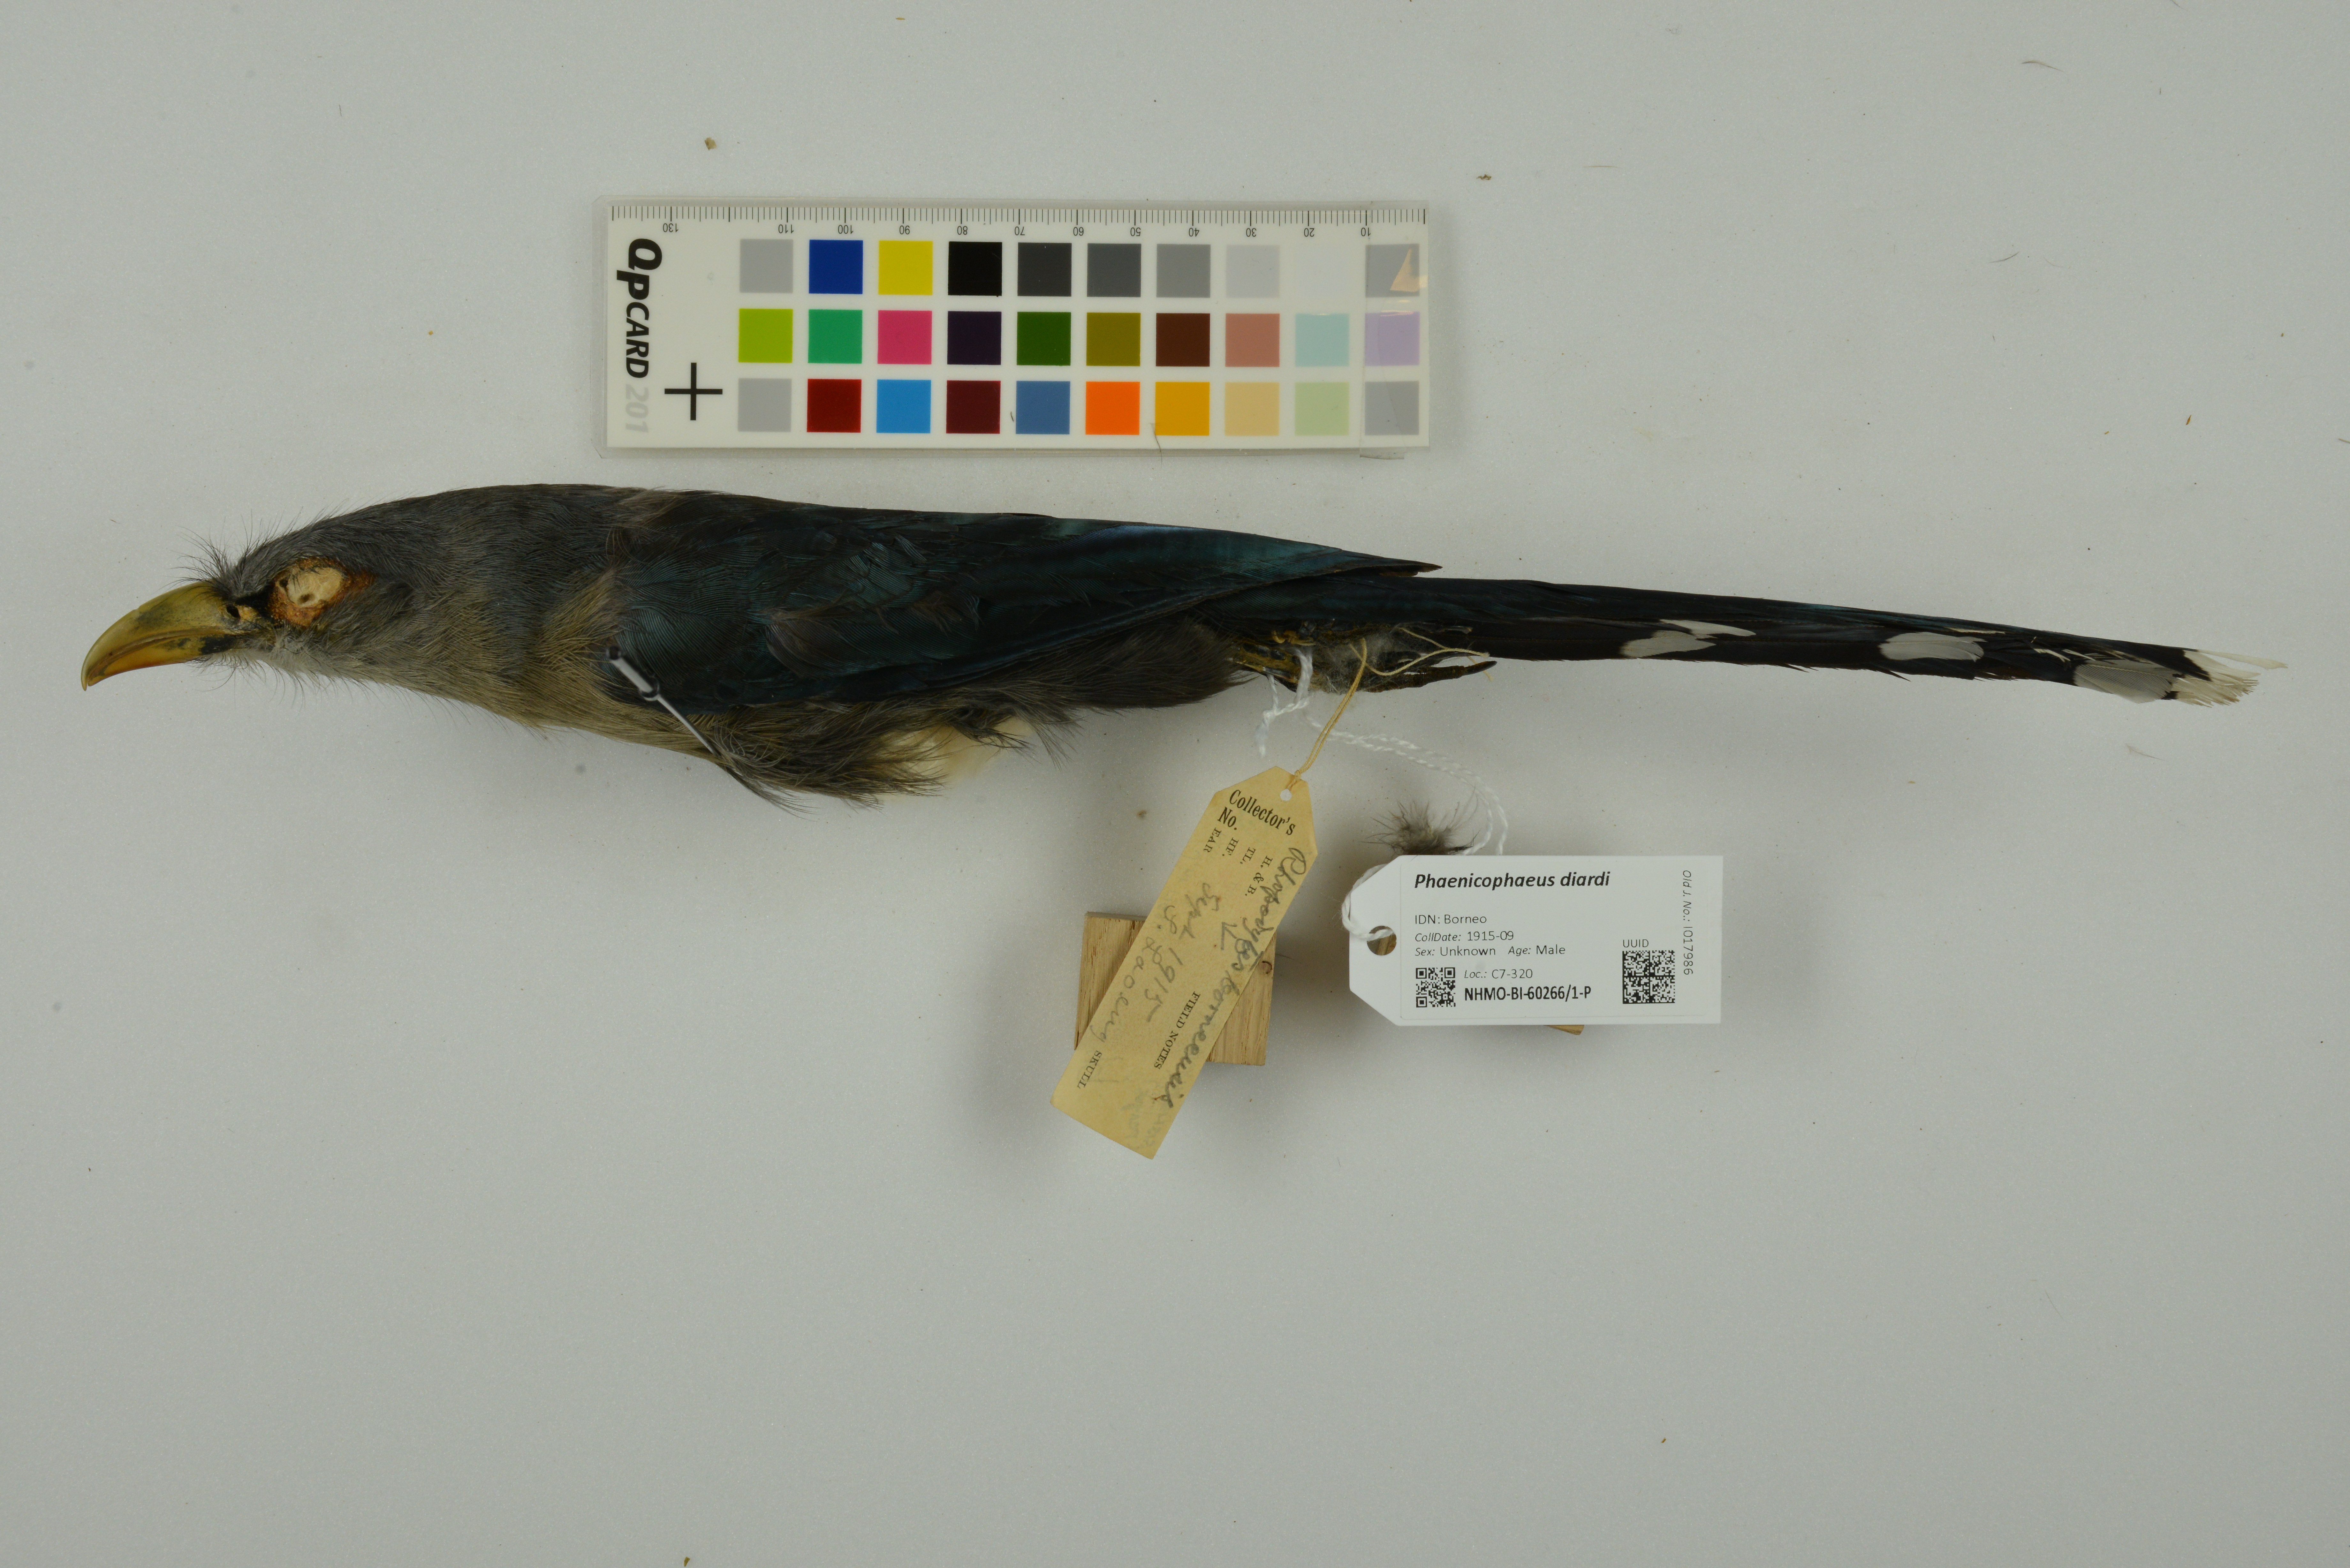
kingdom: Animalia
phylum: Chordata
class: Aves
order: Cuculiformes
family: Cuculidae
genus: Rhopodytes
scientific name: Rhopodytes diardi
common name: Lesser green-billed malcoha
